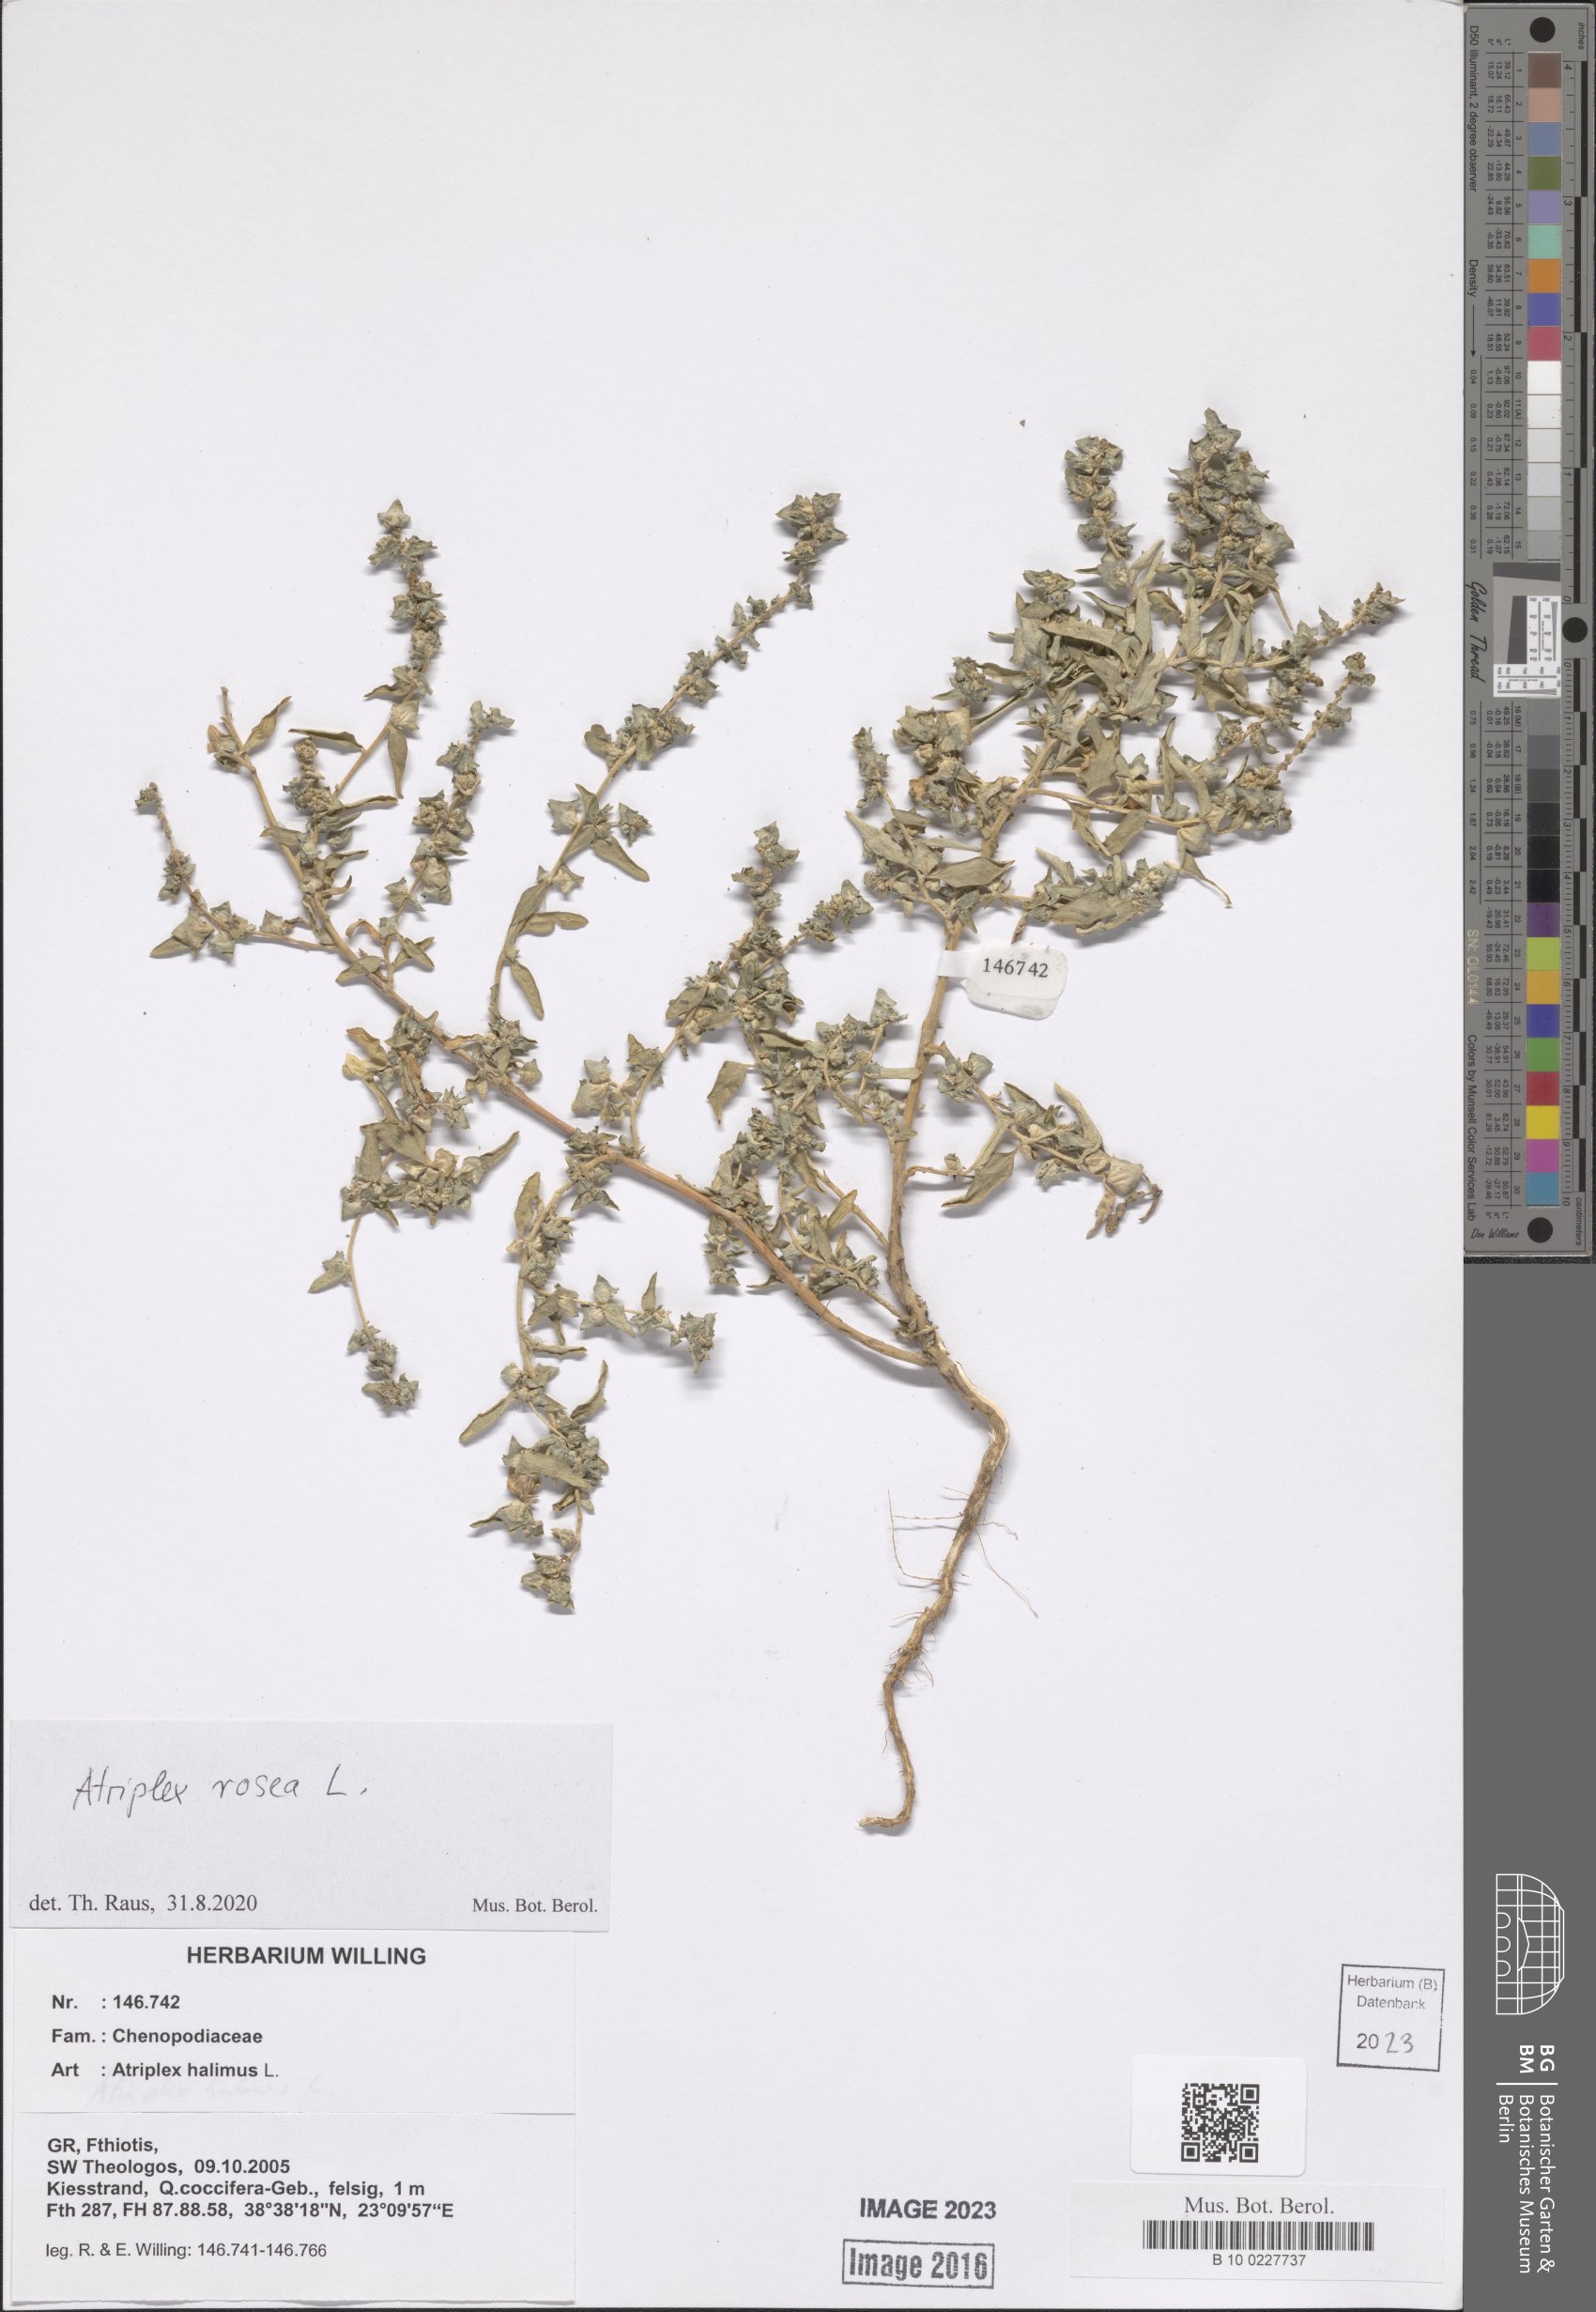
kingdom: Plantae
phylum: Tracheophyta
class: Magnoliopsida
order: Caryophyllales
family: Amaranthaceae
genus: Atriplex
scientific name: Atriplex rosea
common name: Tumbling saltweed
